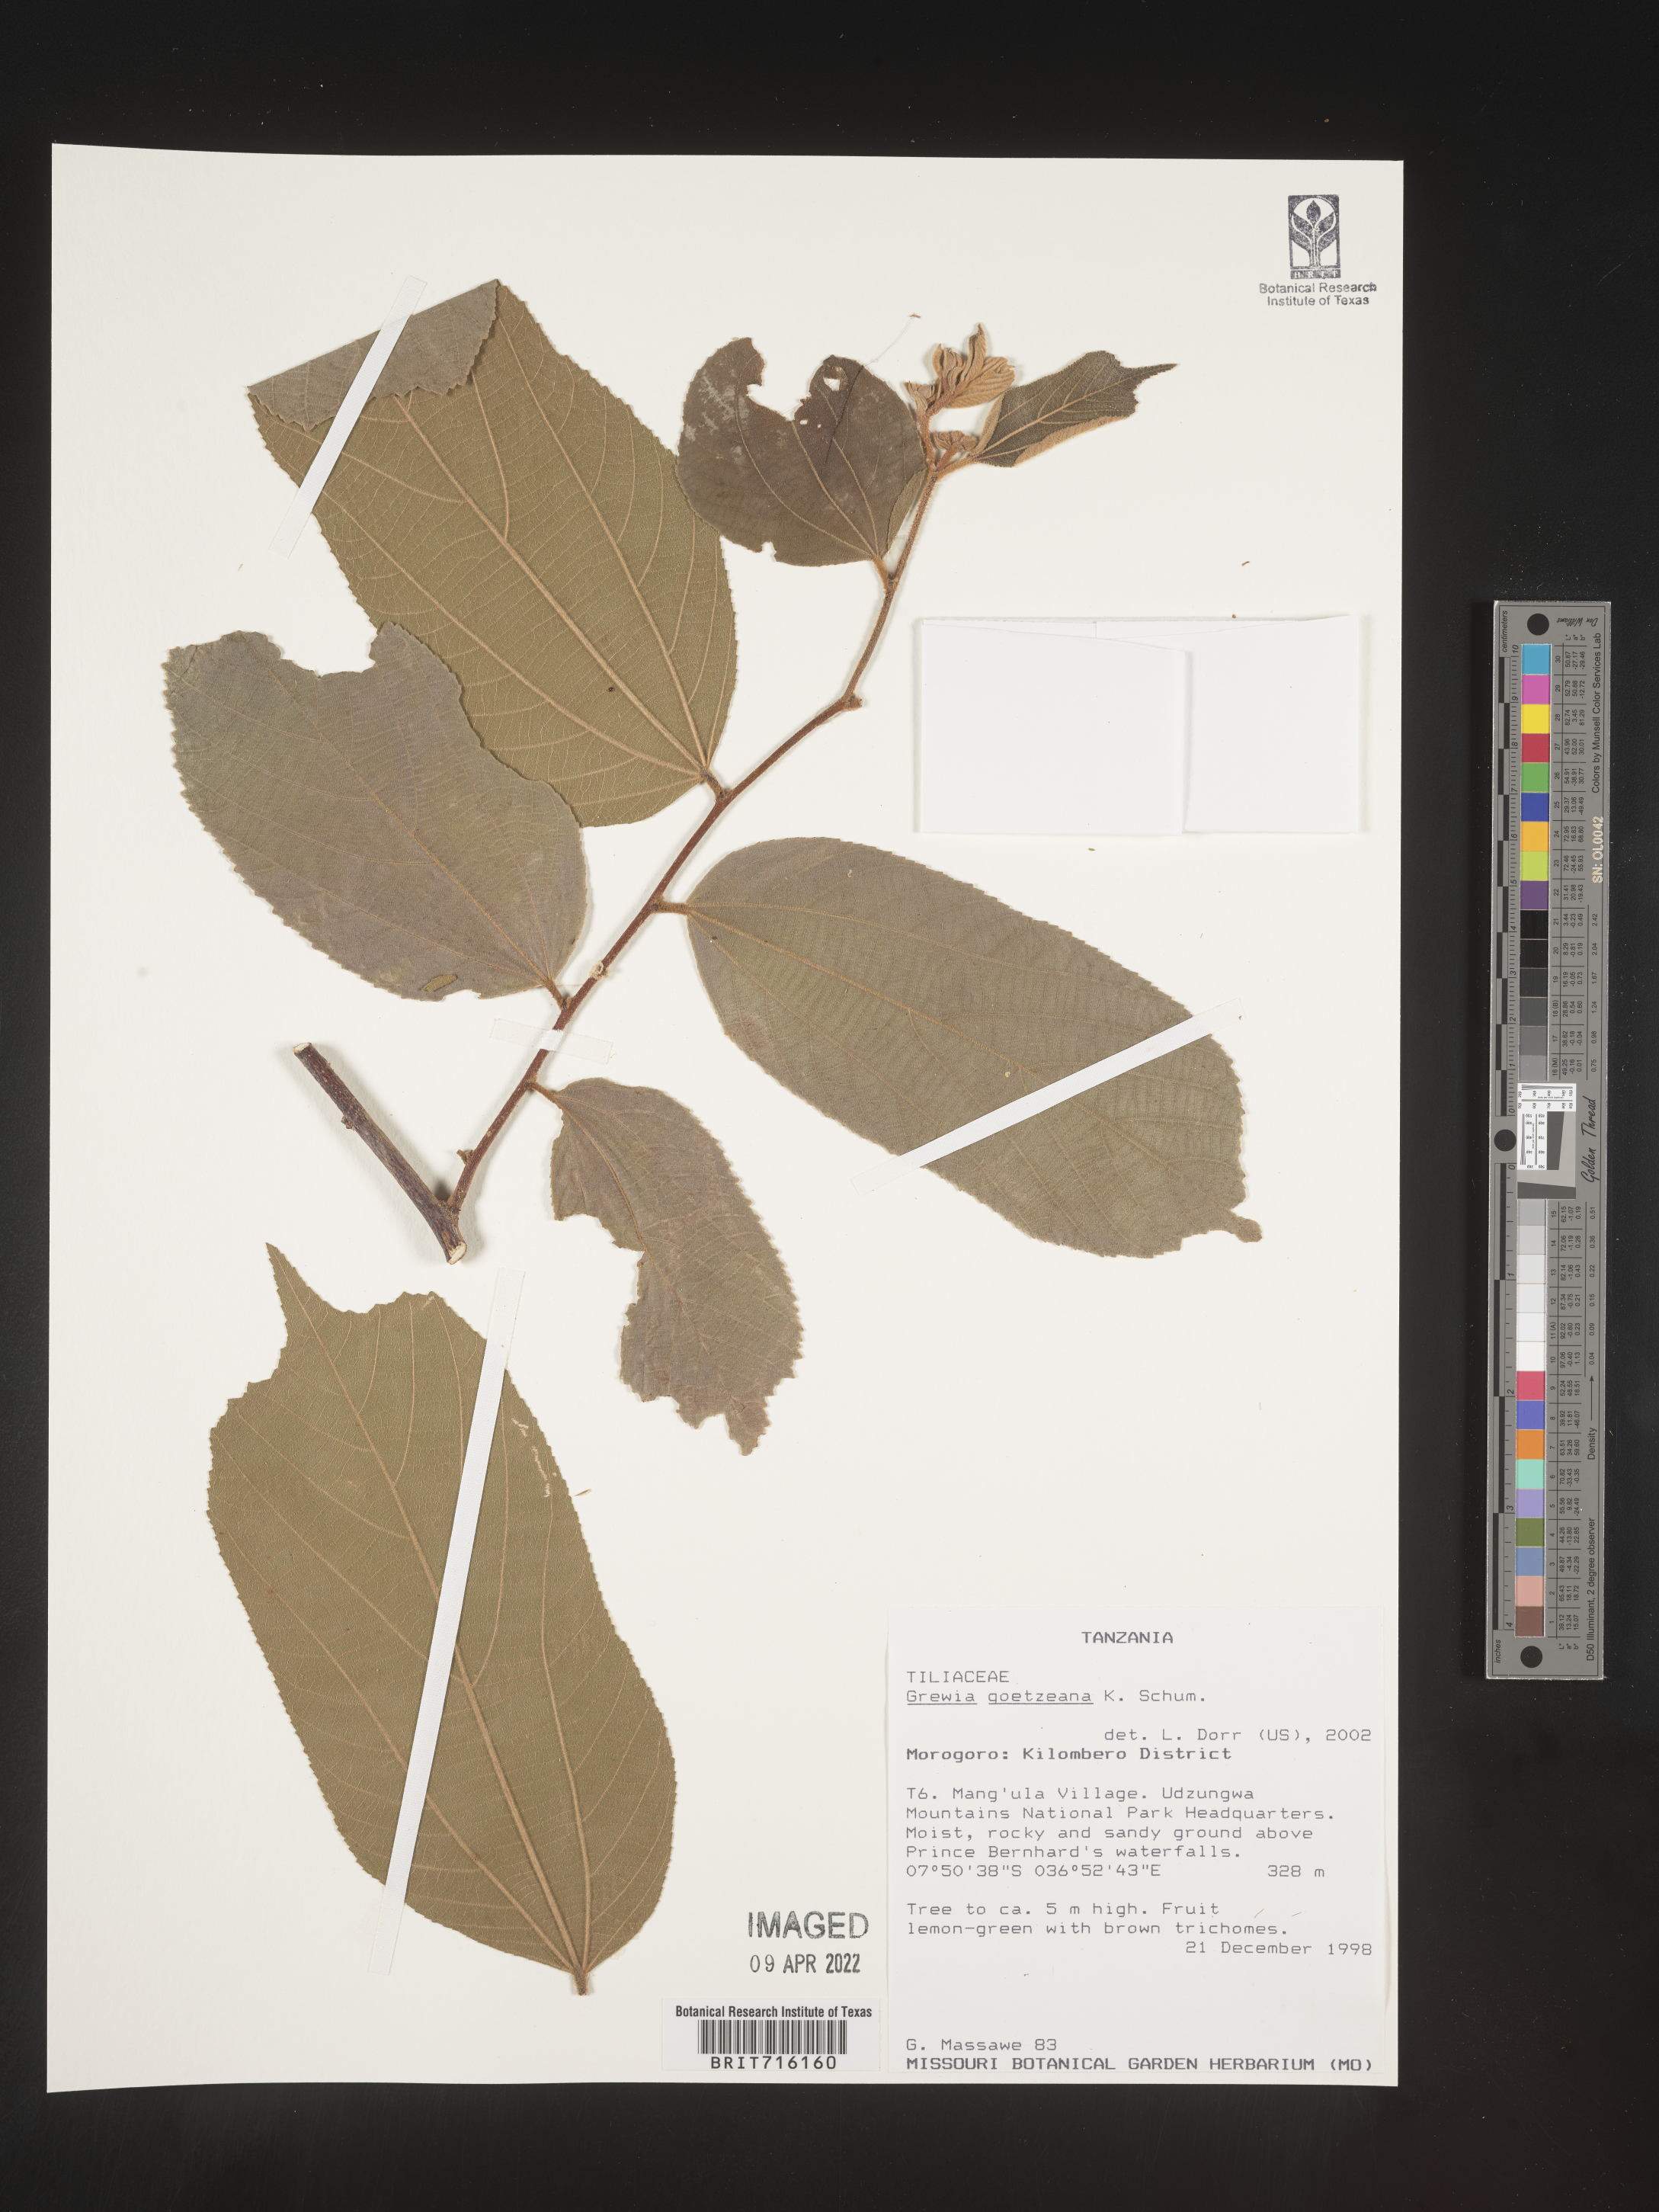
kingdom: Plantae
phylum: Tracheophyta
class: Magnoliopsida
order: Malvales
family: Malvaceae
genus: Grewia
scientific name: Grewia
